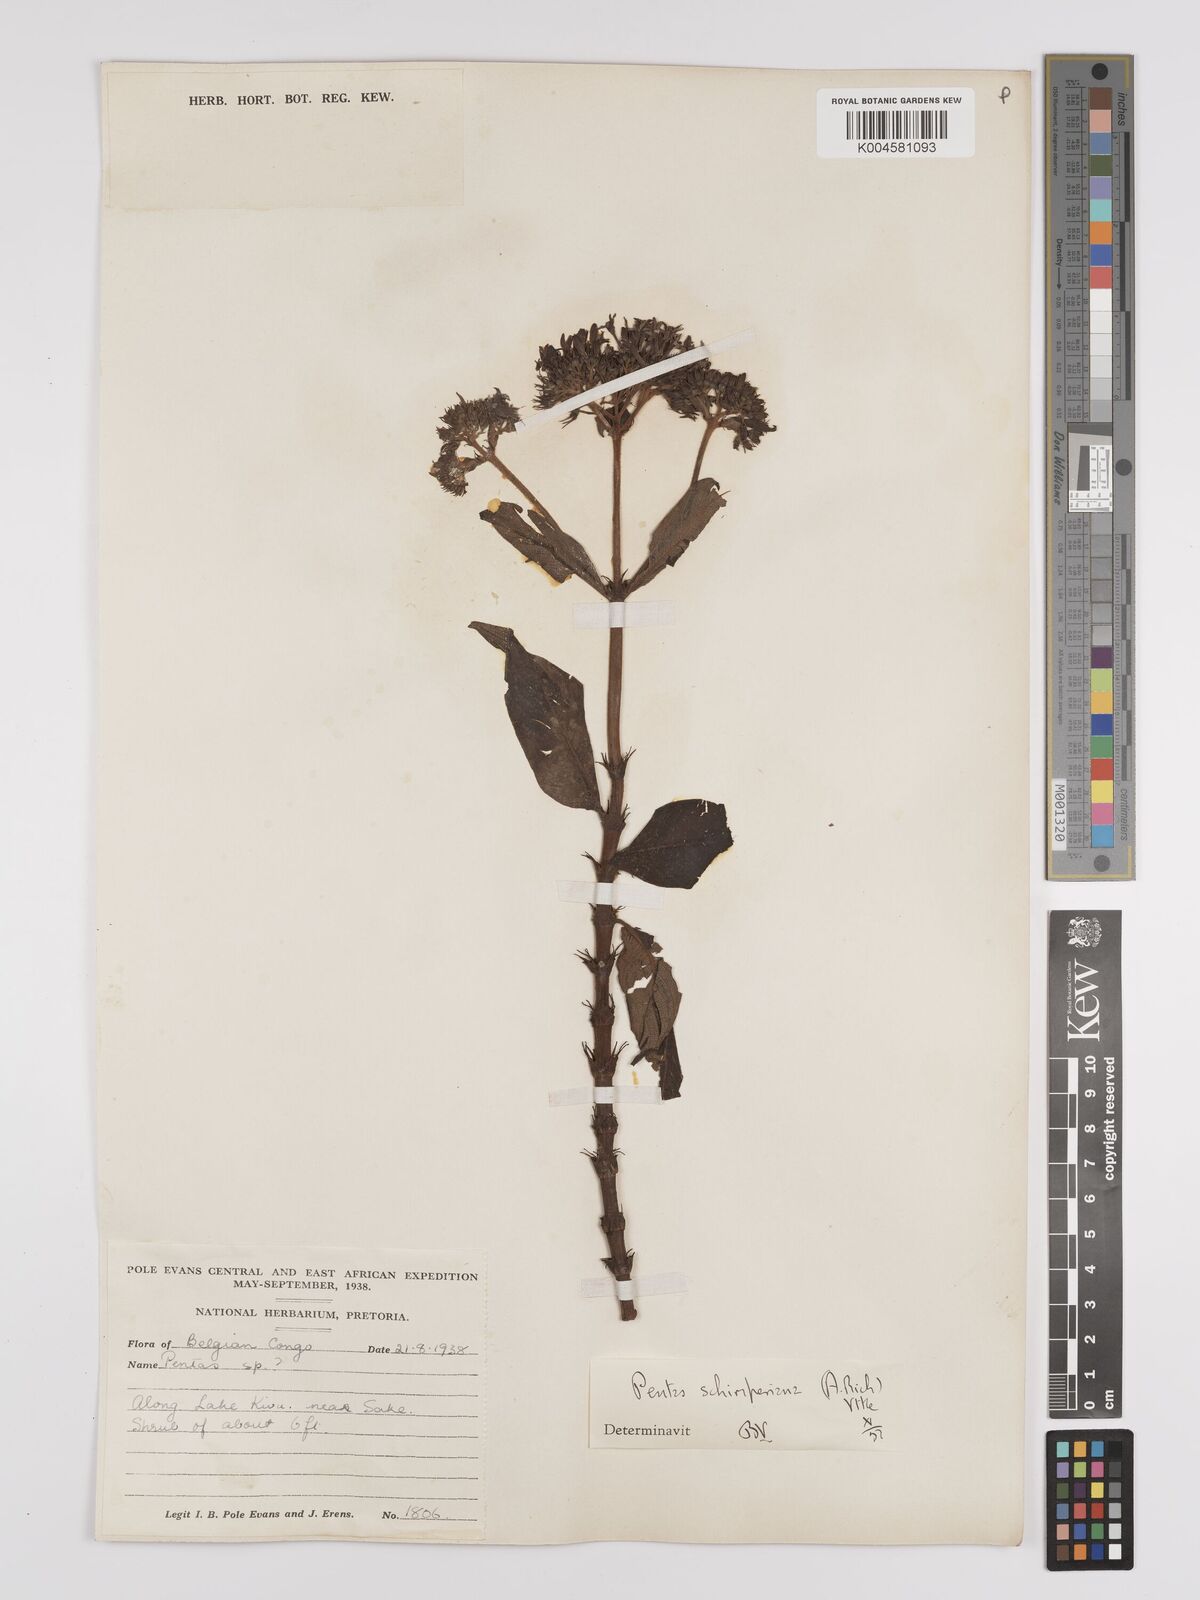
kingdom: Plantae
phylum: Tracheophyta
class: Magnoliopsida
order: Gentianales
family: Rubiaceae
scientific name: Rubiaceae
